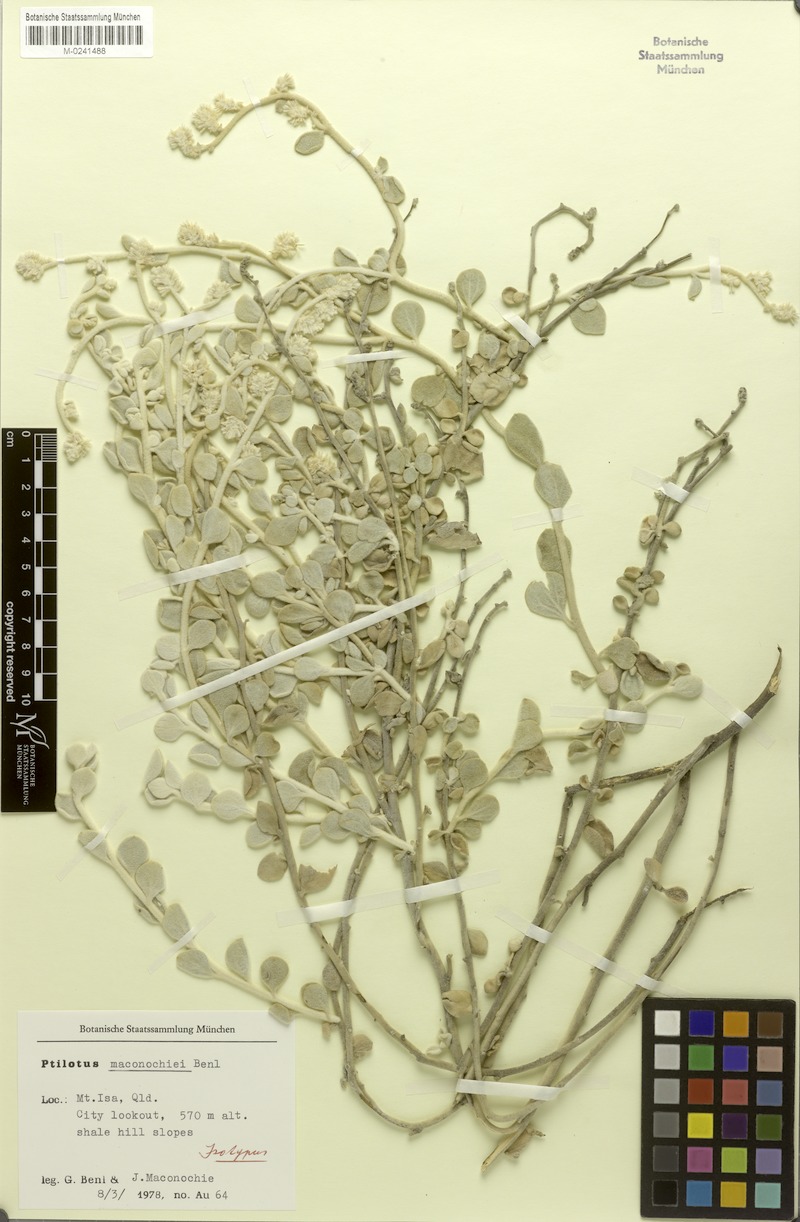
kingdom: Plantae
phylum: Tracheophyta
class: Magnoliopsida
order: Caryophyllales
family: Amaranthaceae
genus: Ptilotus
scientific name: Ptilotus maconochiei
